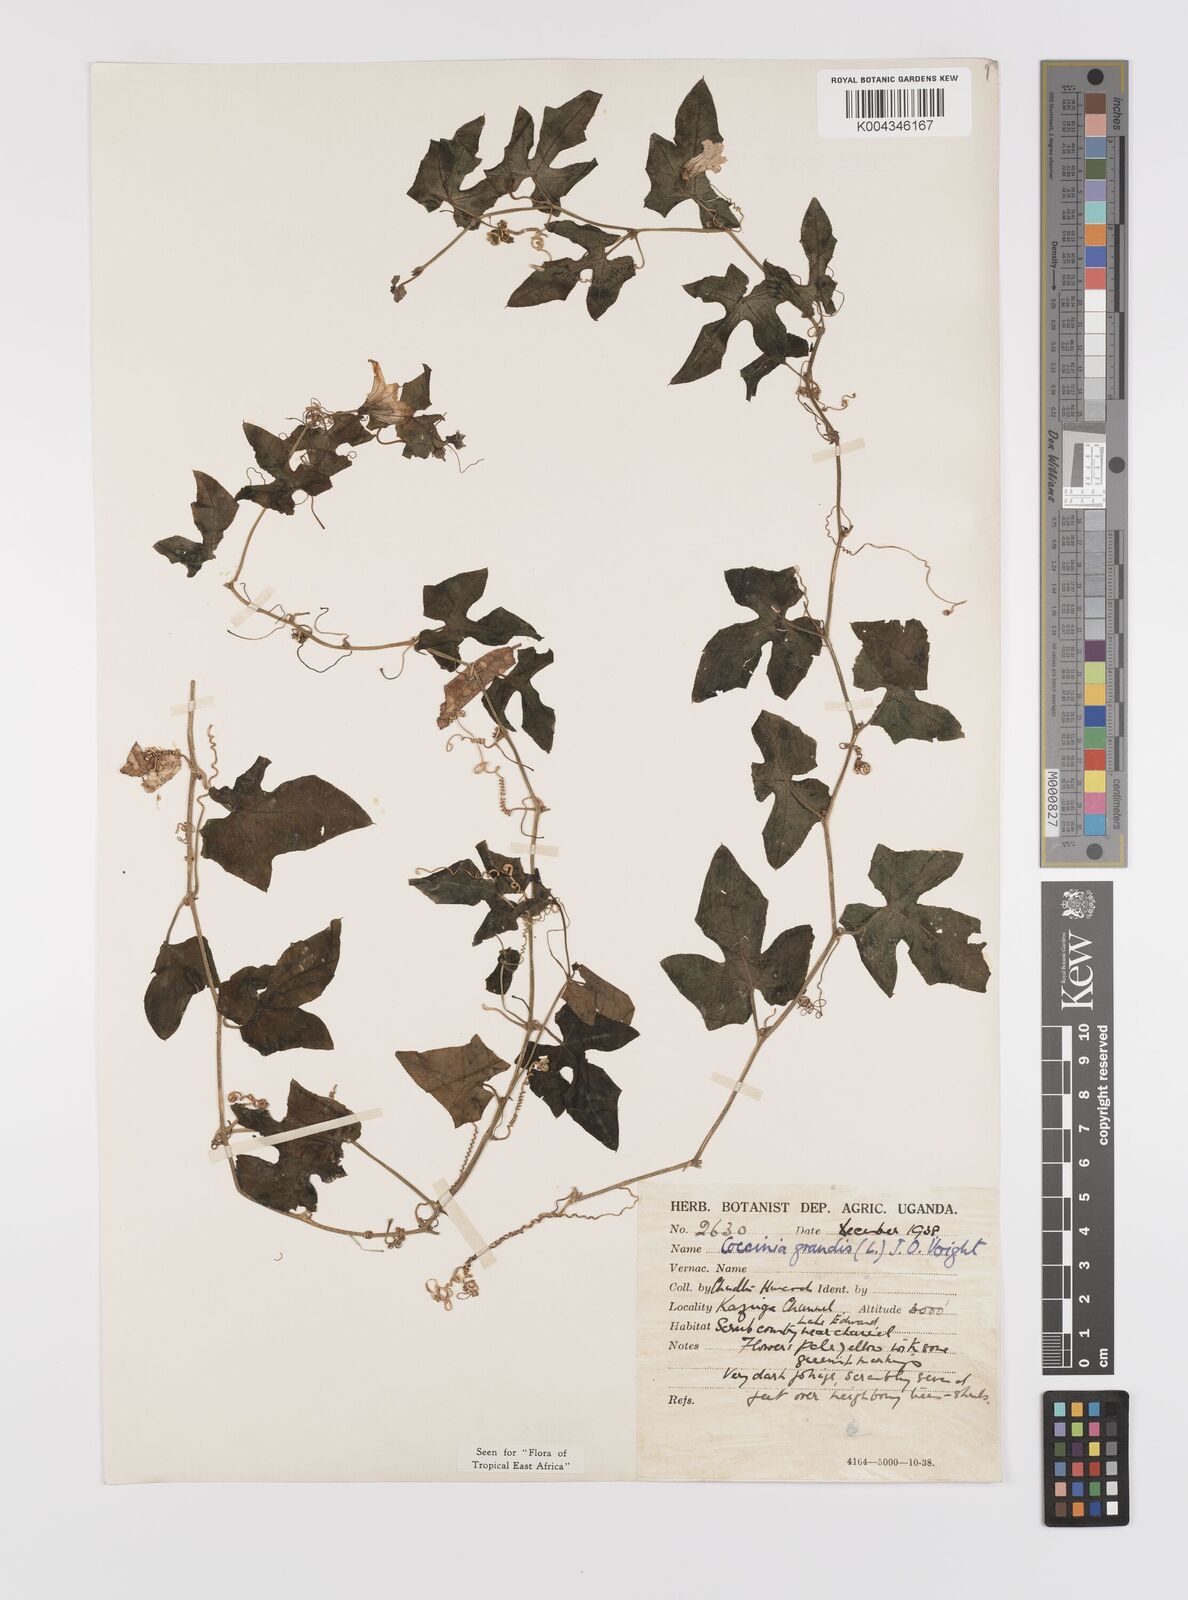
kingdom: Plantae
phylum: Tracheophyta
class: Magnoliopsida
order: Cucurbitales
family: Cucurbitaceae
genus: Coccinia
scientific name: Coccinia grandis
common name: Ivy gourd
